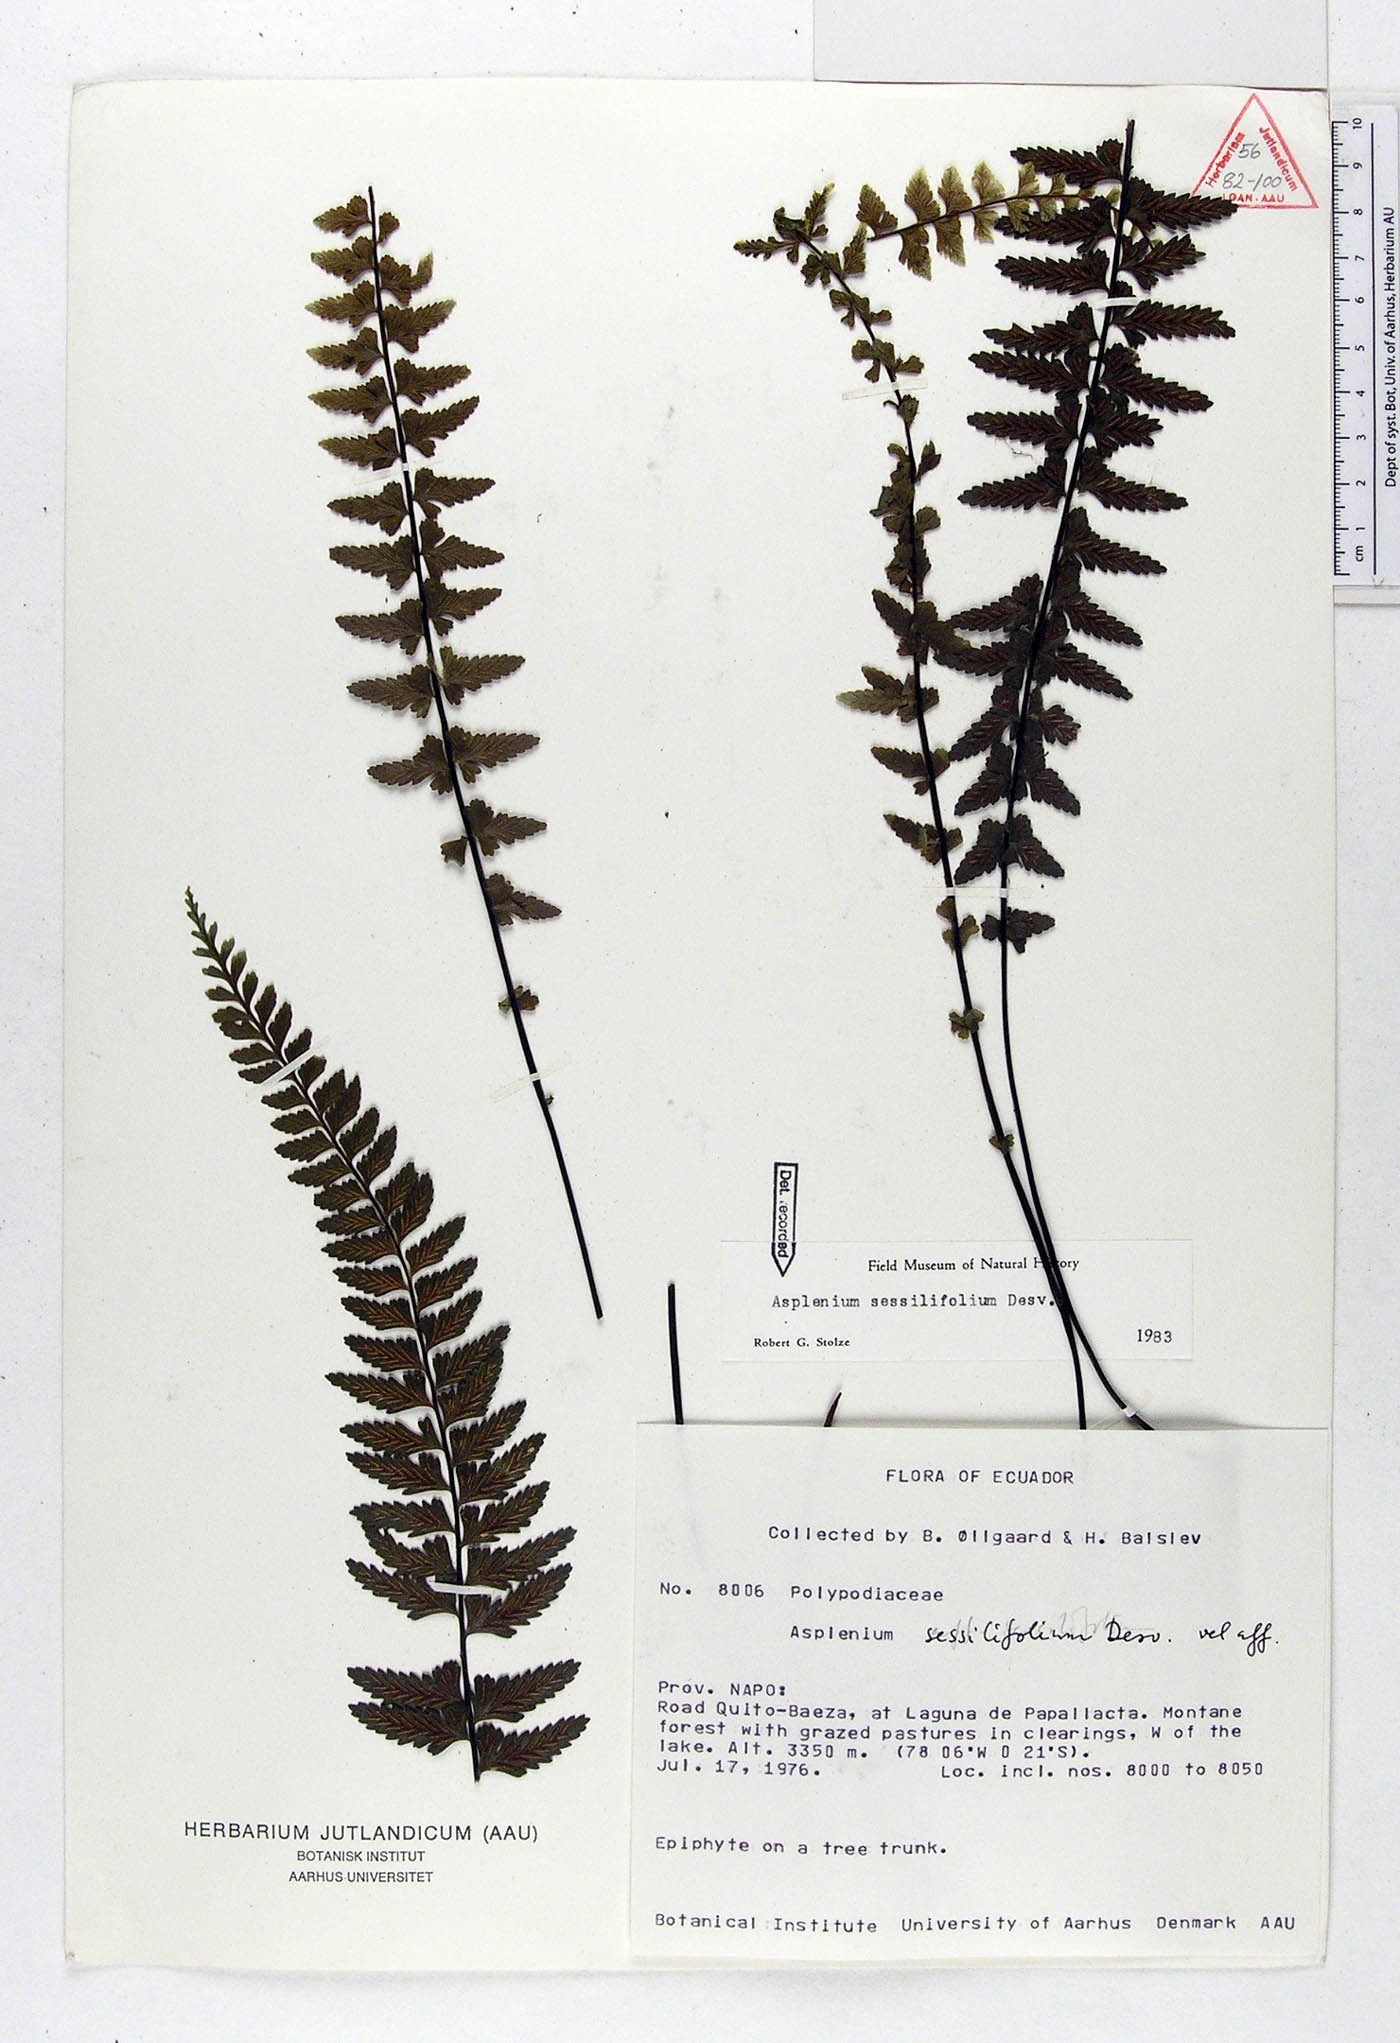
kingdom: Plantae
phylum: Tracheophyta
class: Polypodiopsida
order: Polypodiales
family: Aspleniaceae
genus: Asplenium
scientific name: Asplenium sessilifolium
